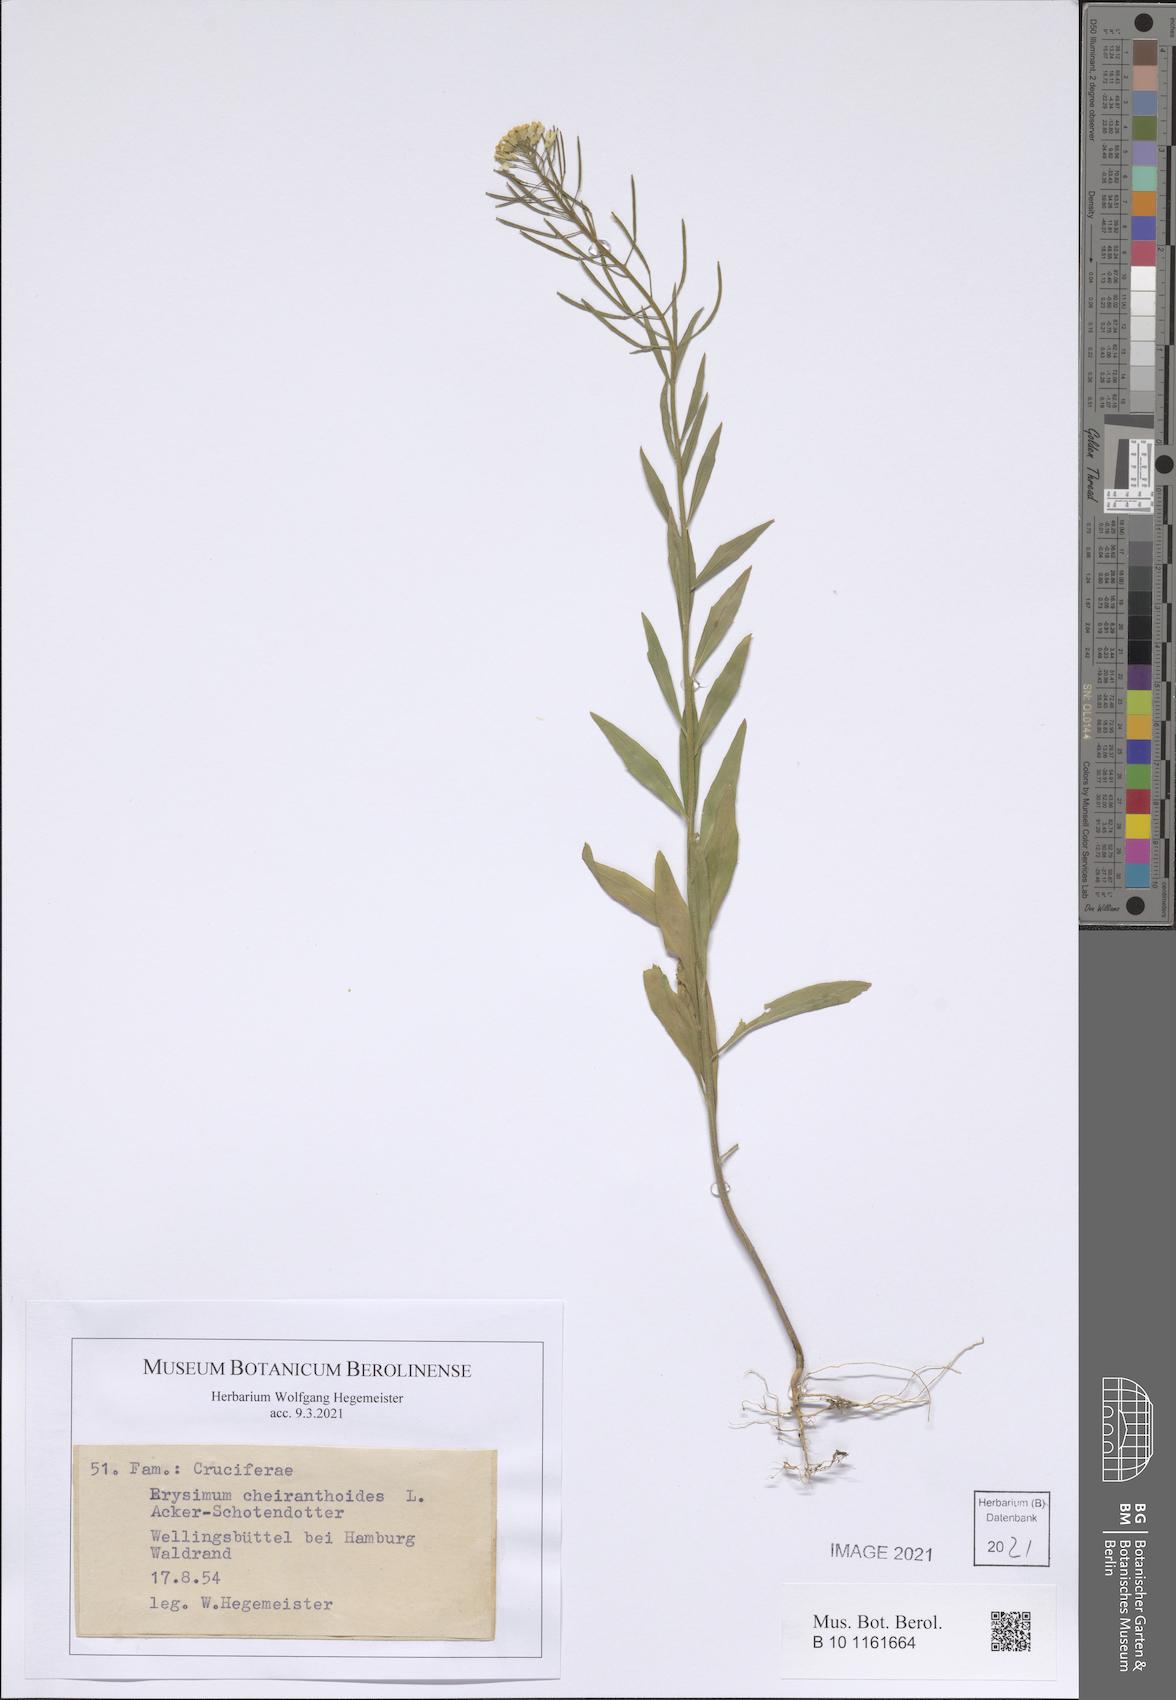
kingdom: Plantae
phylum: Tracheophyta
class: Magnoliopsida
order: Brassicales
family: Brassicaceae
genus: Erysimum
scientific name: Erysimum cheiranthoides
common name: Treacle mustard
